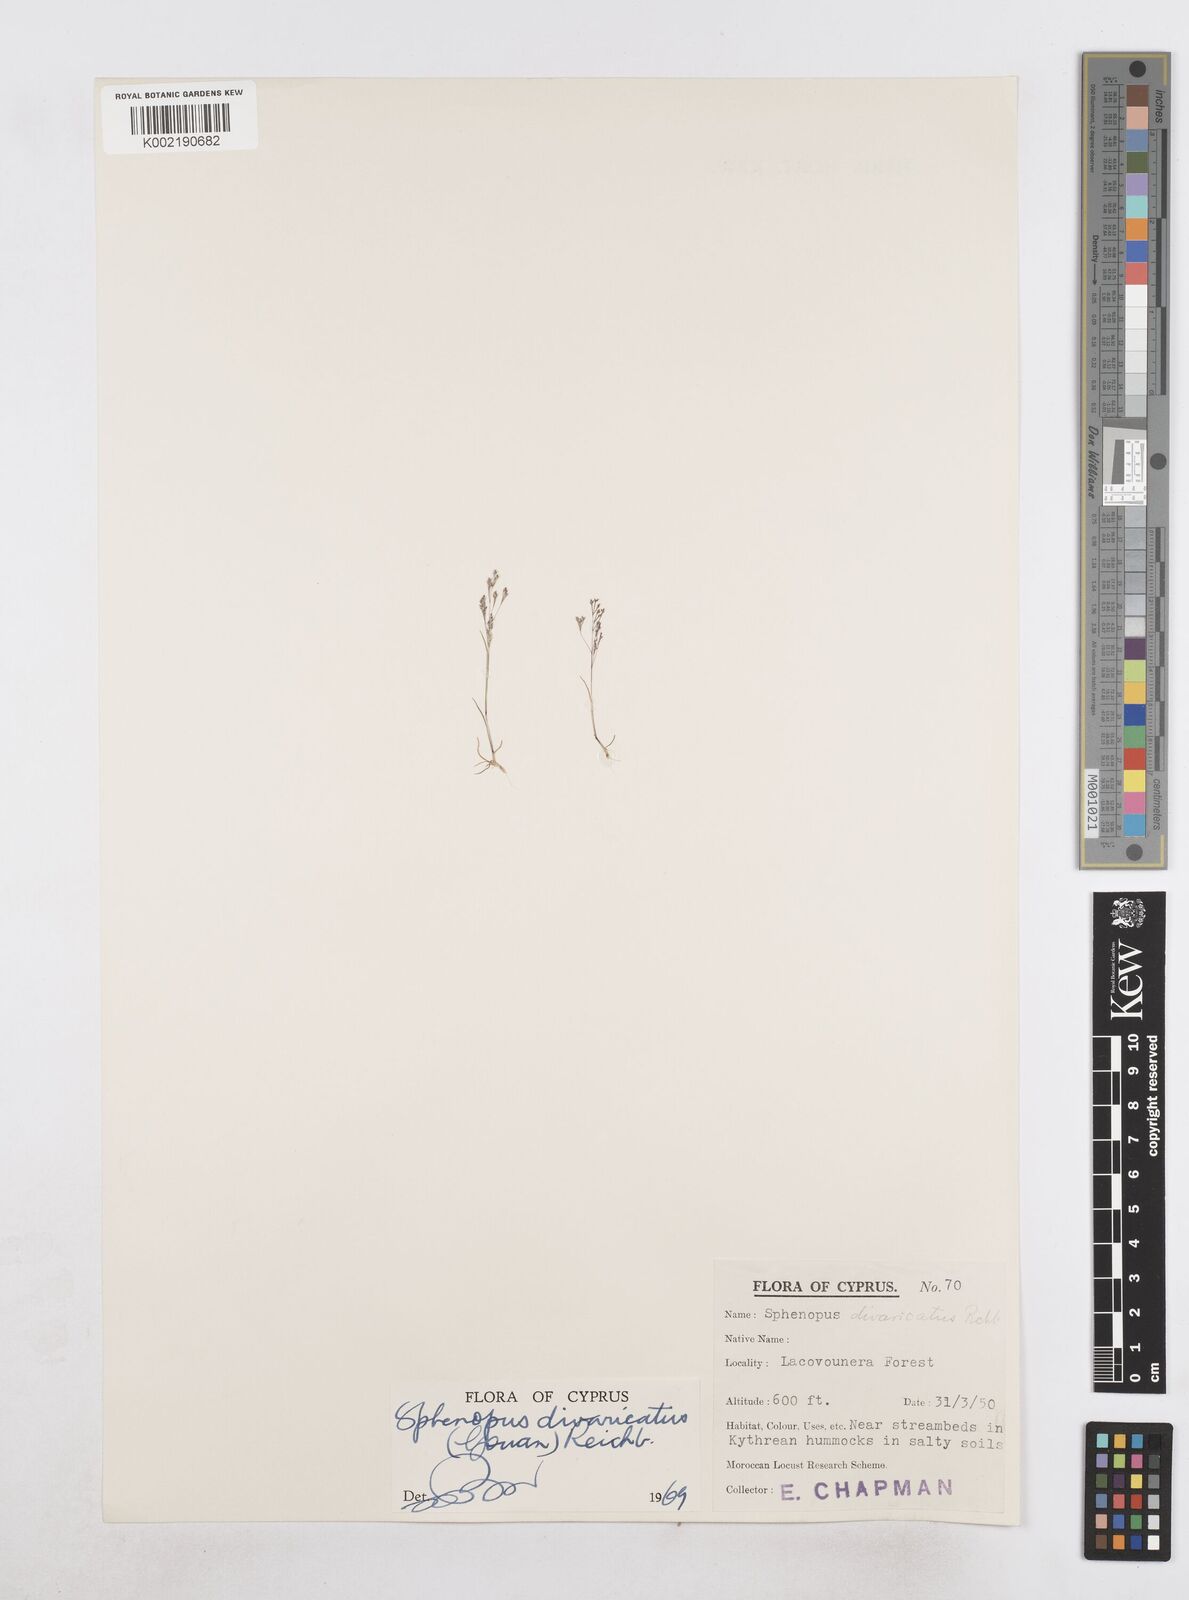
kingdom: Plantae
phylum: Tracheophyta
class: Liliopsida
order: Poales
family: Poaceae
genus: Sphenopus
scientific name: Sphenopus divaricatus
